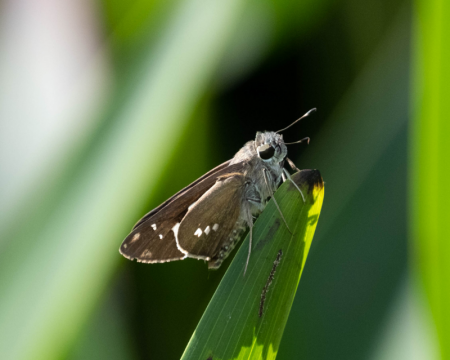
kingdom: Animalia
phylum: Arthropoda
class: Insecta
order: Lepidoptera
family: Hesperiidae
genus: Calpodes
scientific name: Calpodes ethlius
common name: Brazilian Skipper
